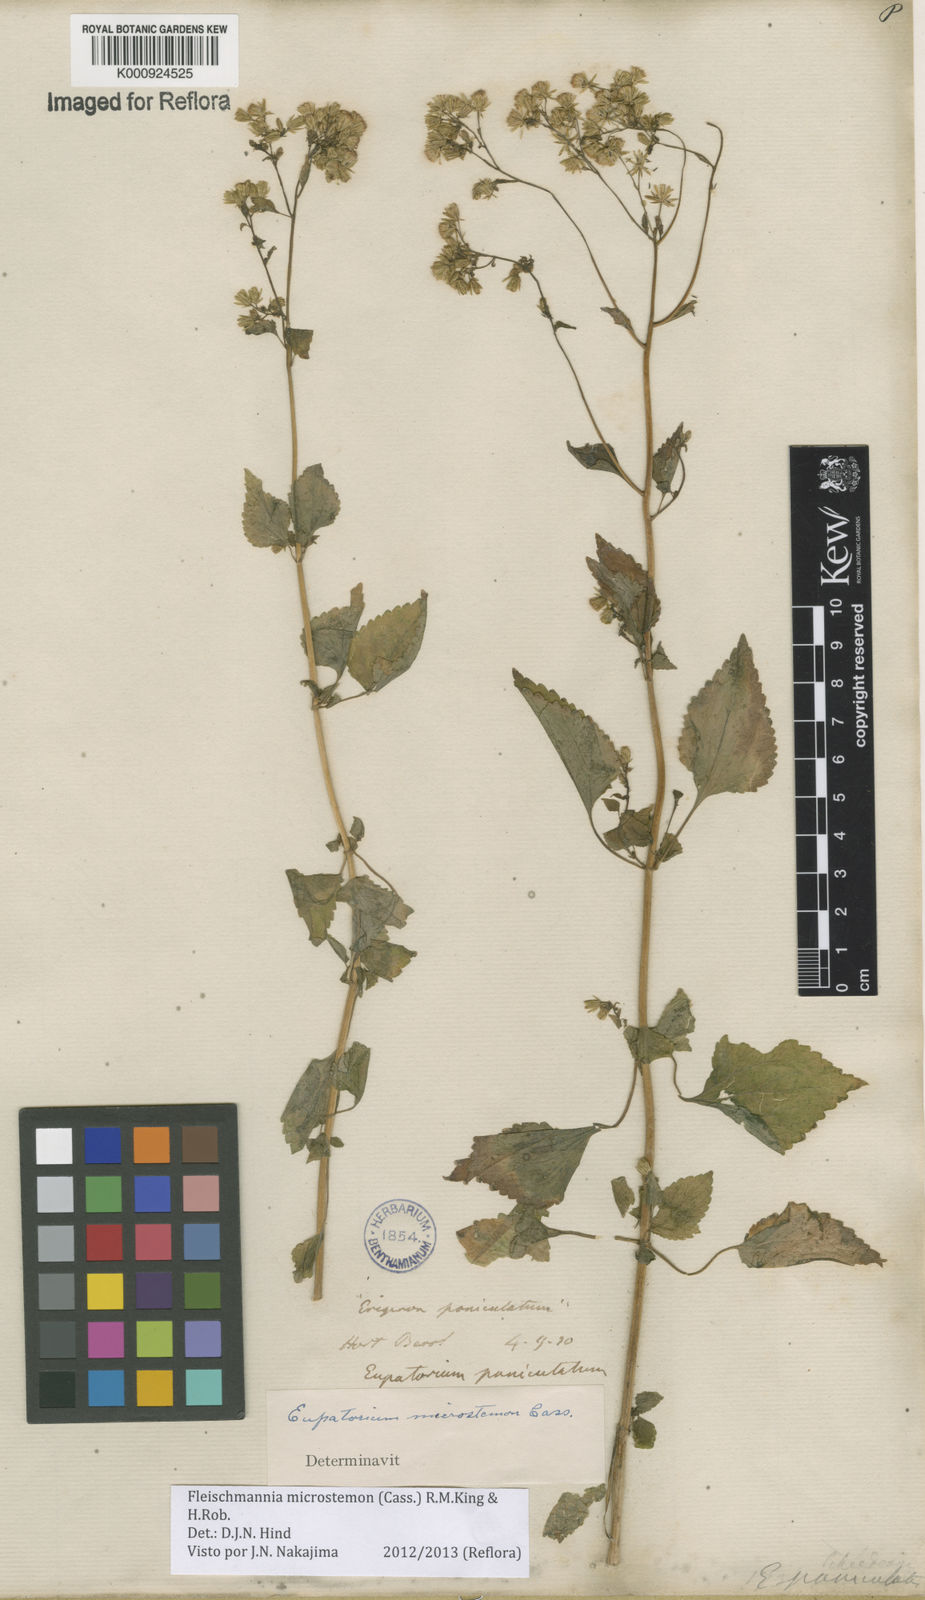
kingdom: Plantae
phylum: Tracheophyta
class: Magnoliopsida
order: Asterales
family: Asteraceae
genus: Fleischmannia
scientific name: Fleischmannia microstemon
